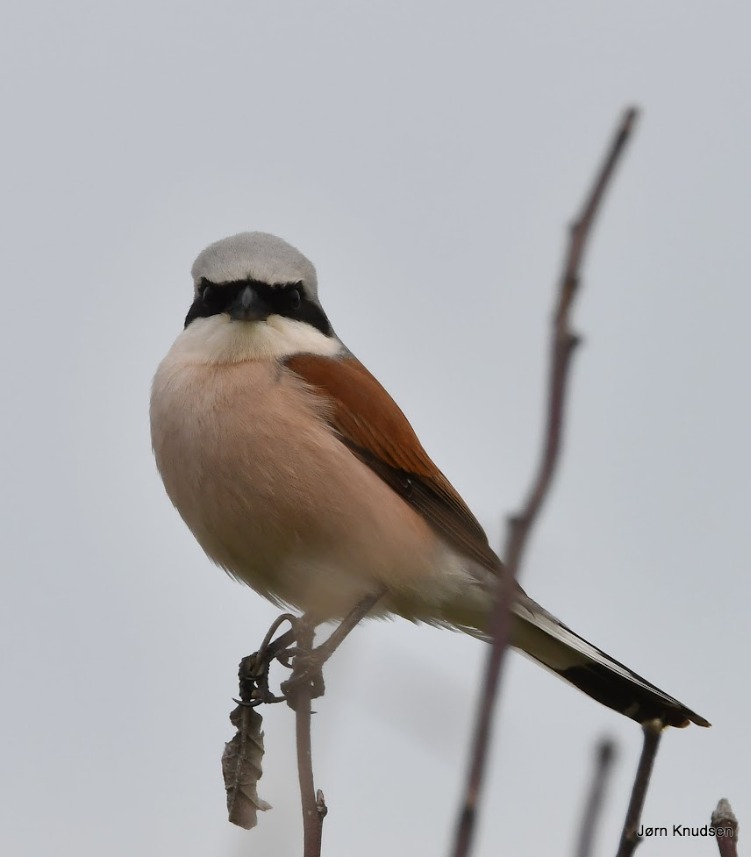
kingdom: Animalia
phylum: Chordata
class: Aves
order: Passeriformes
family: Laniidae
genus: Lanius
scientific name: Lanius collurio
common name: Rødrygget tornskade
